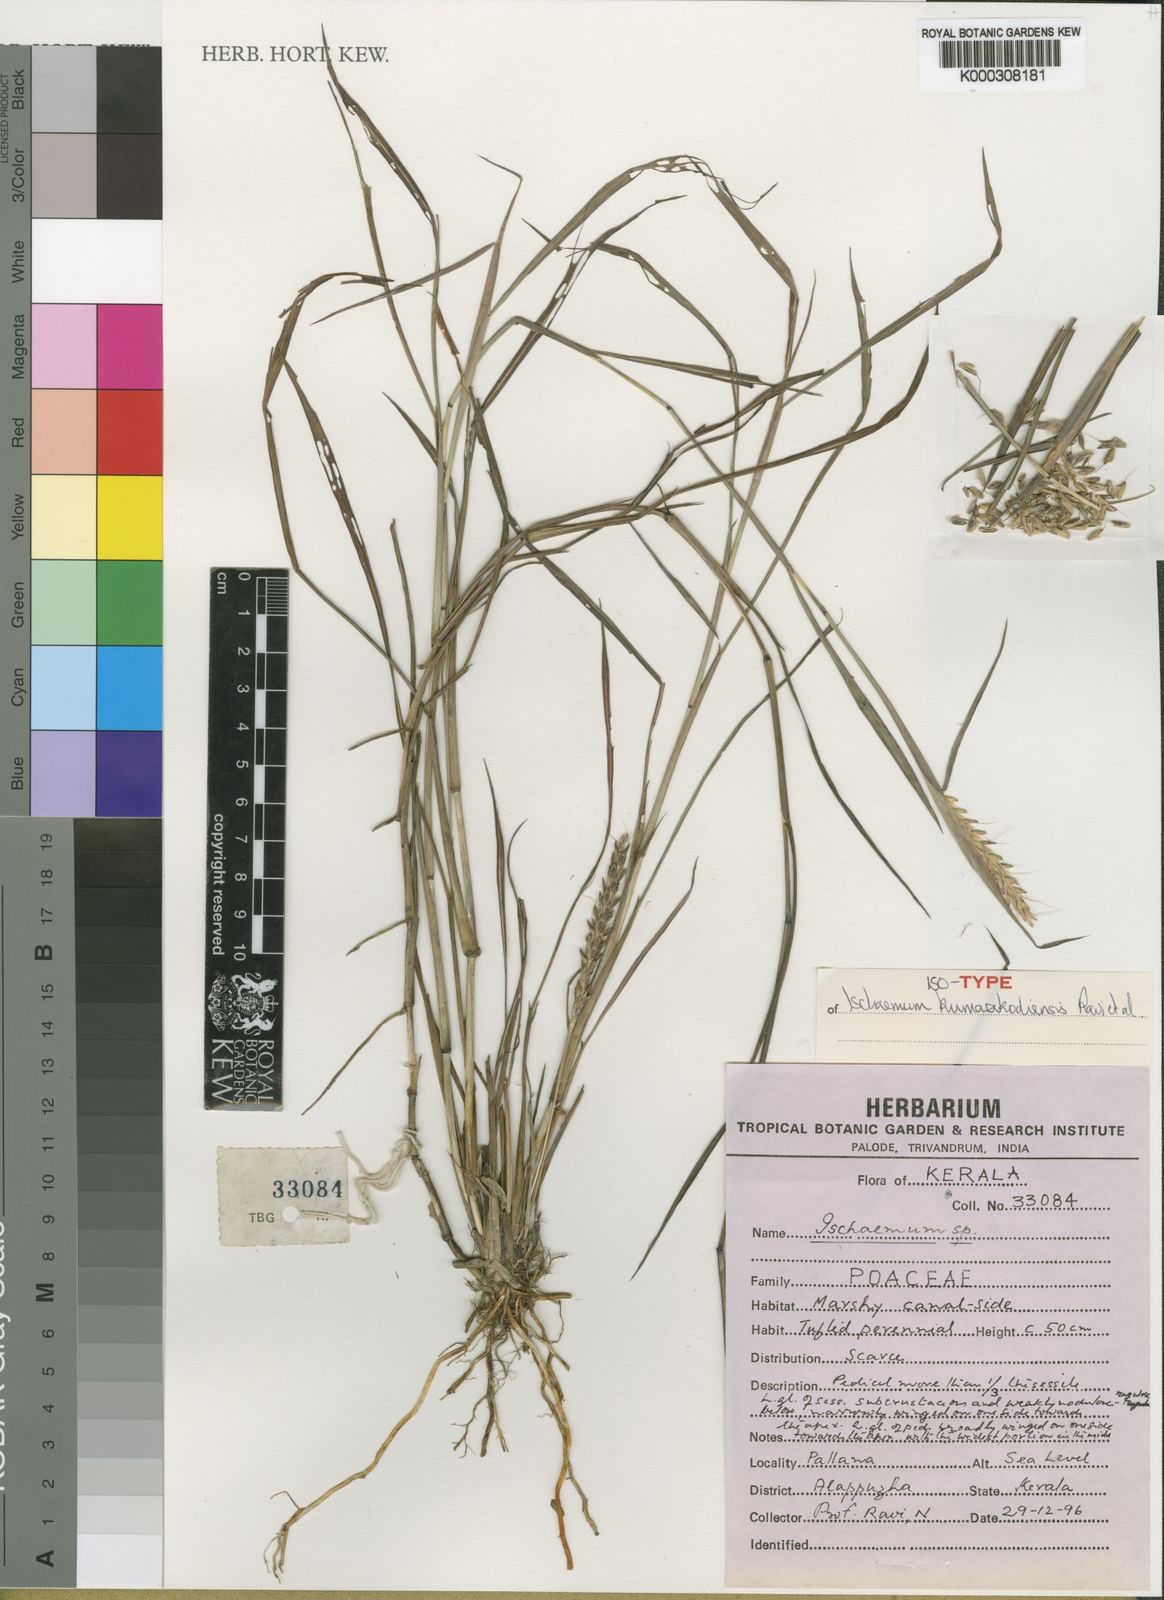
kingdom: Plantae
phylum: Tracheophyta
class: Liliopsida
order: Poales
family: Poaceae
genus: Ischaemum
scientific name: Ischaemum kumarakodiense
